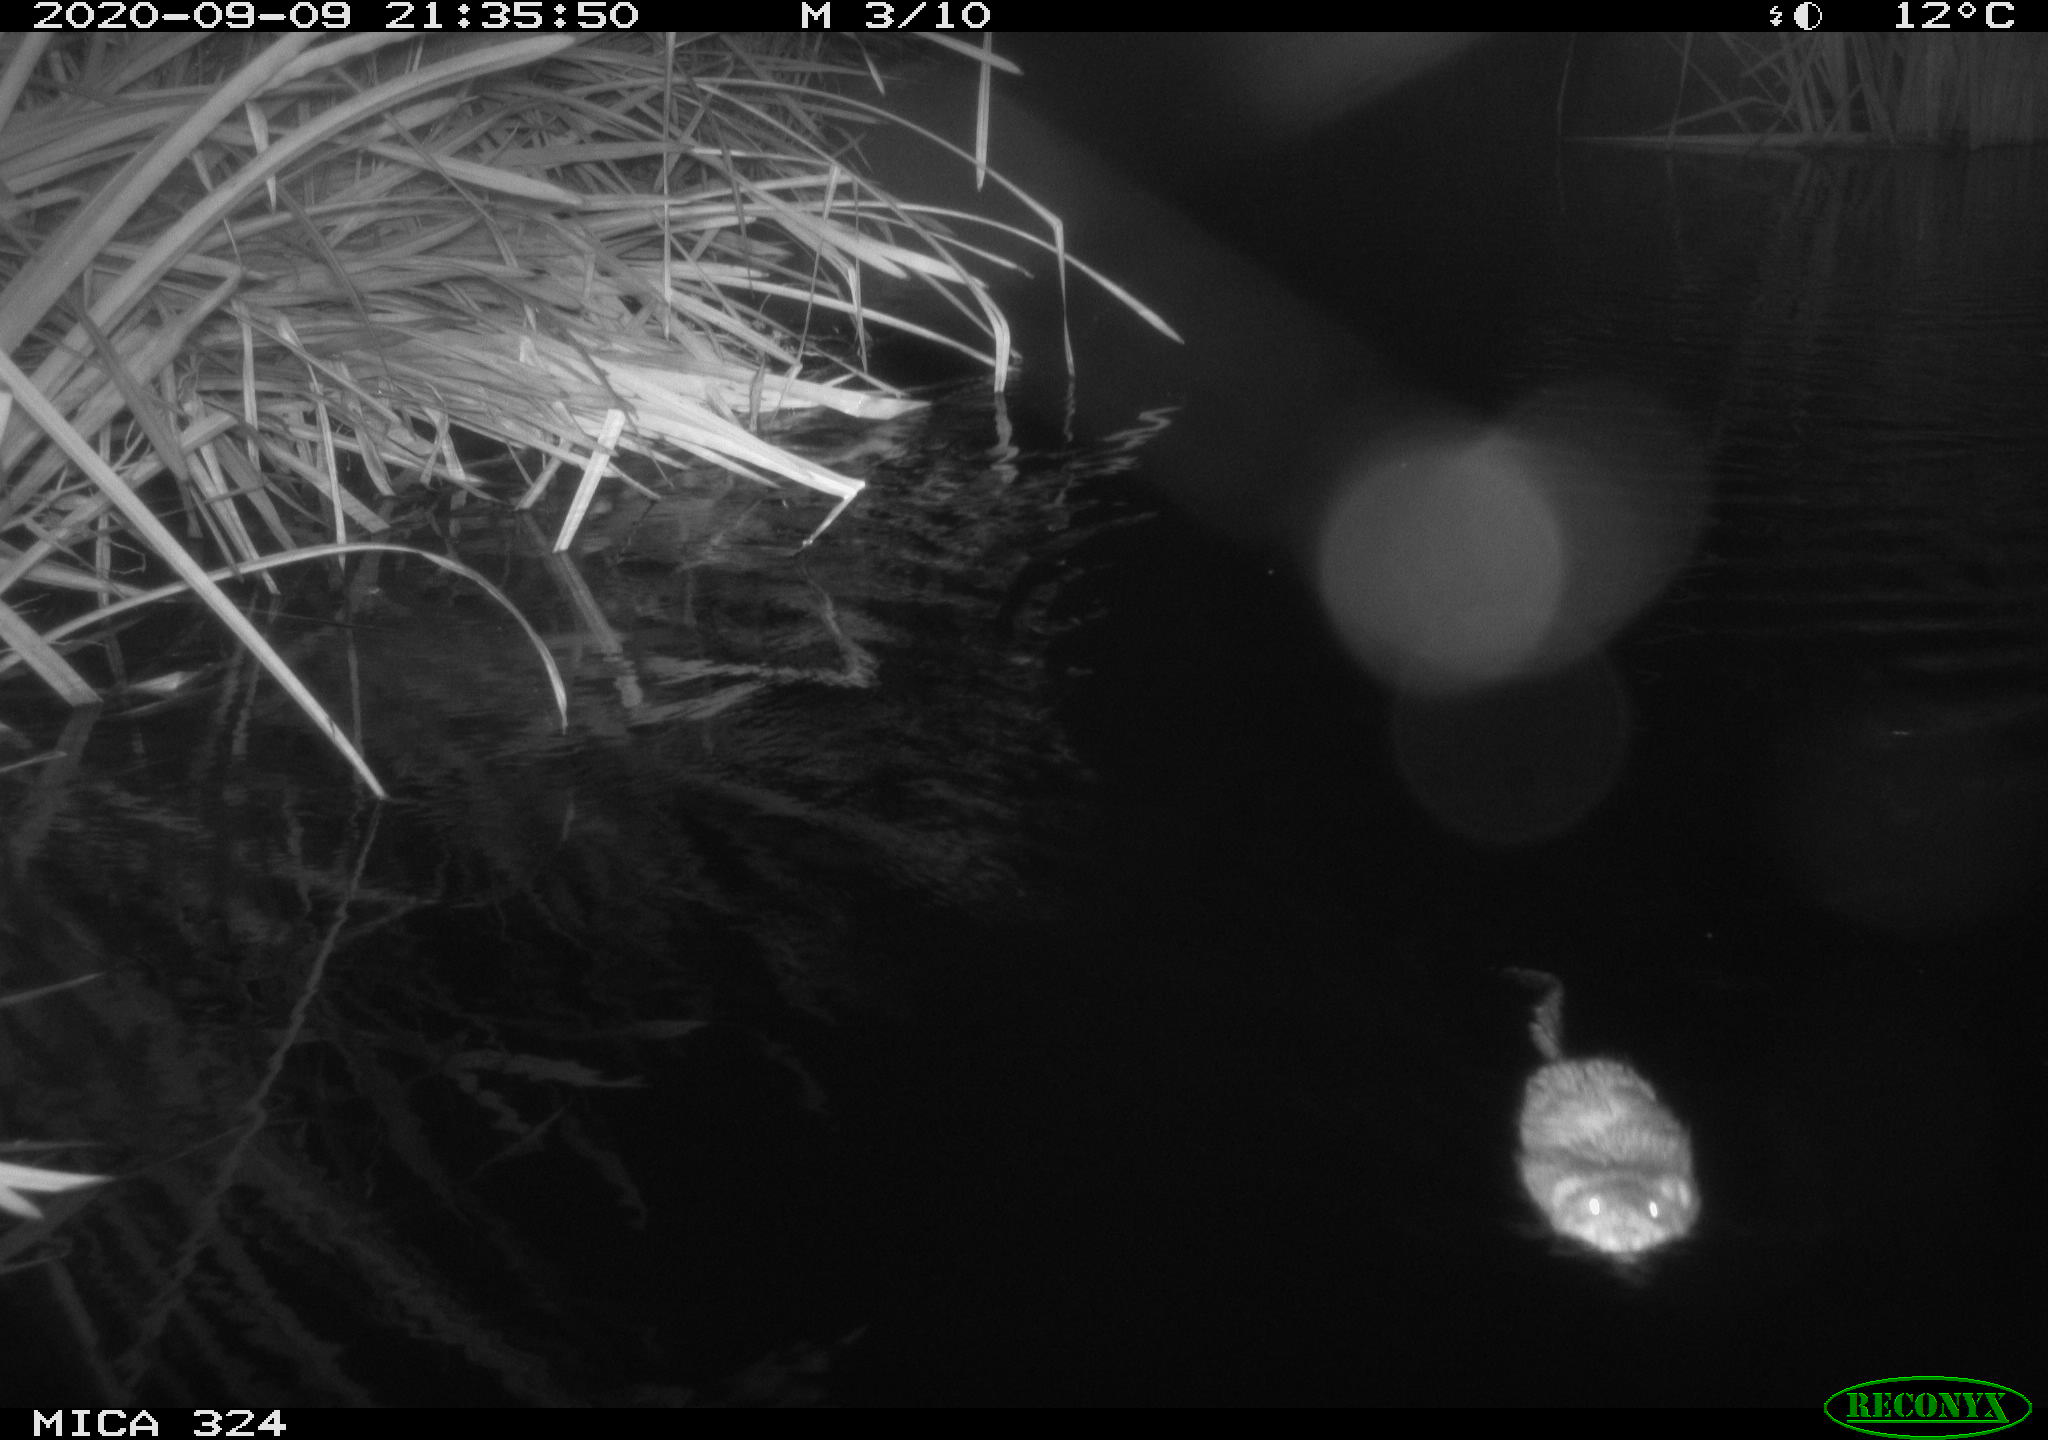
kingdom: Animalia
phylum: Chordata
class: Mammalia
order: Rodentia
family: Cricetidae
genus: Ondatra
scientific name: Ondatra zibethicus
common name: Muskrat
